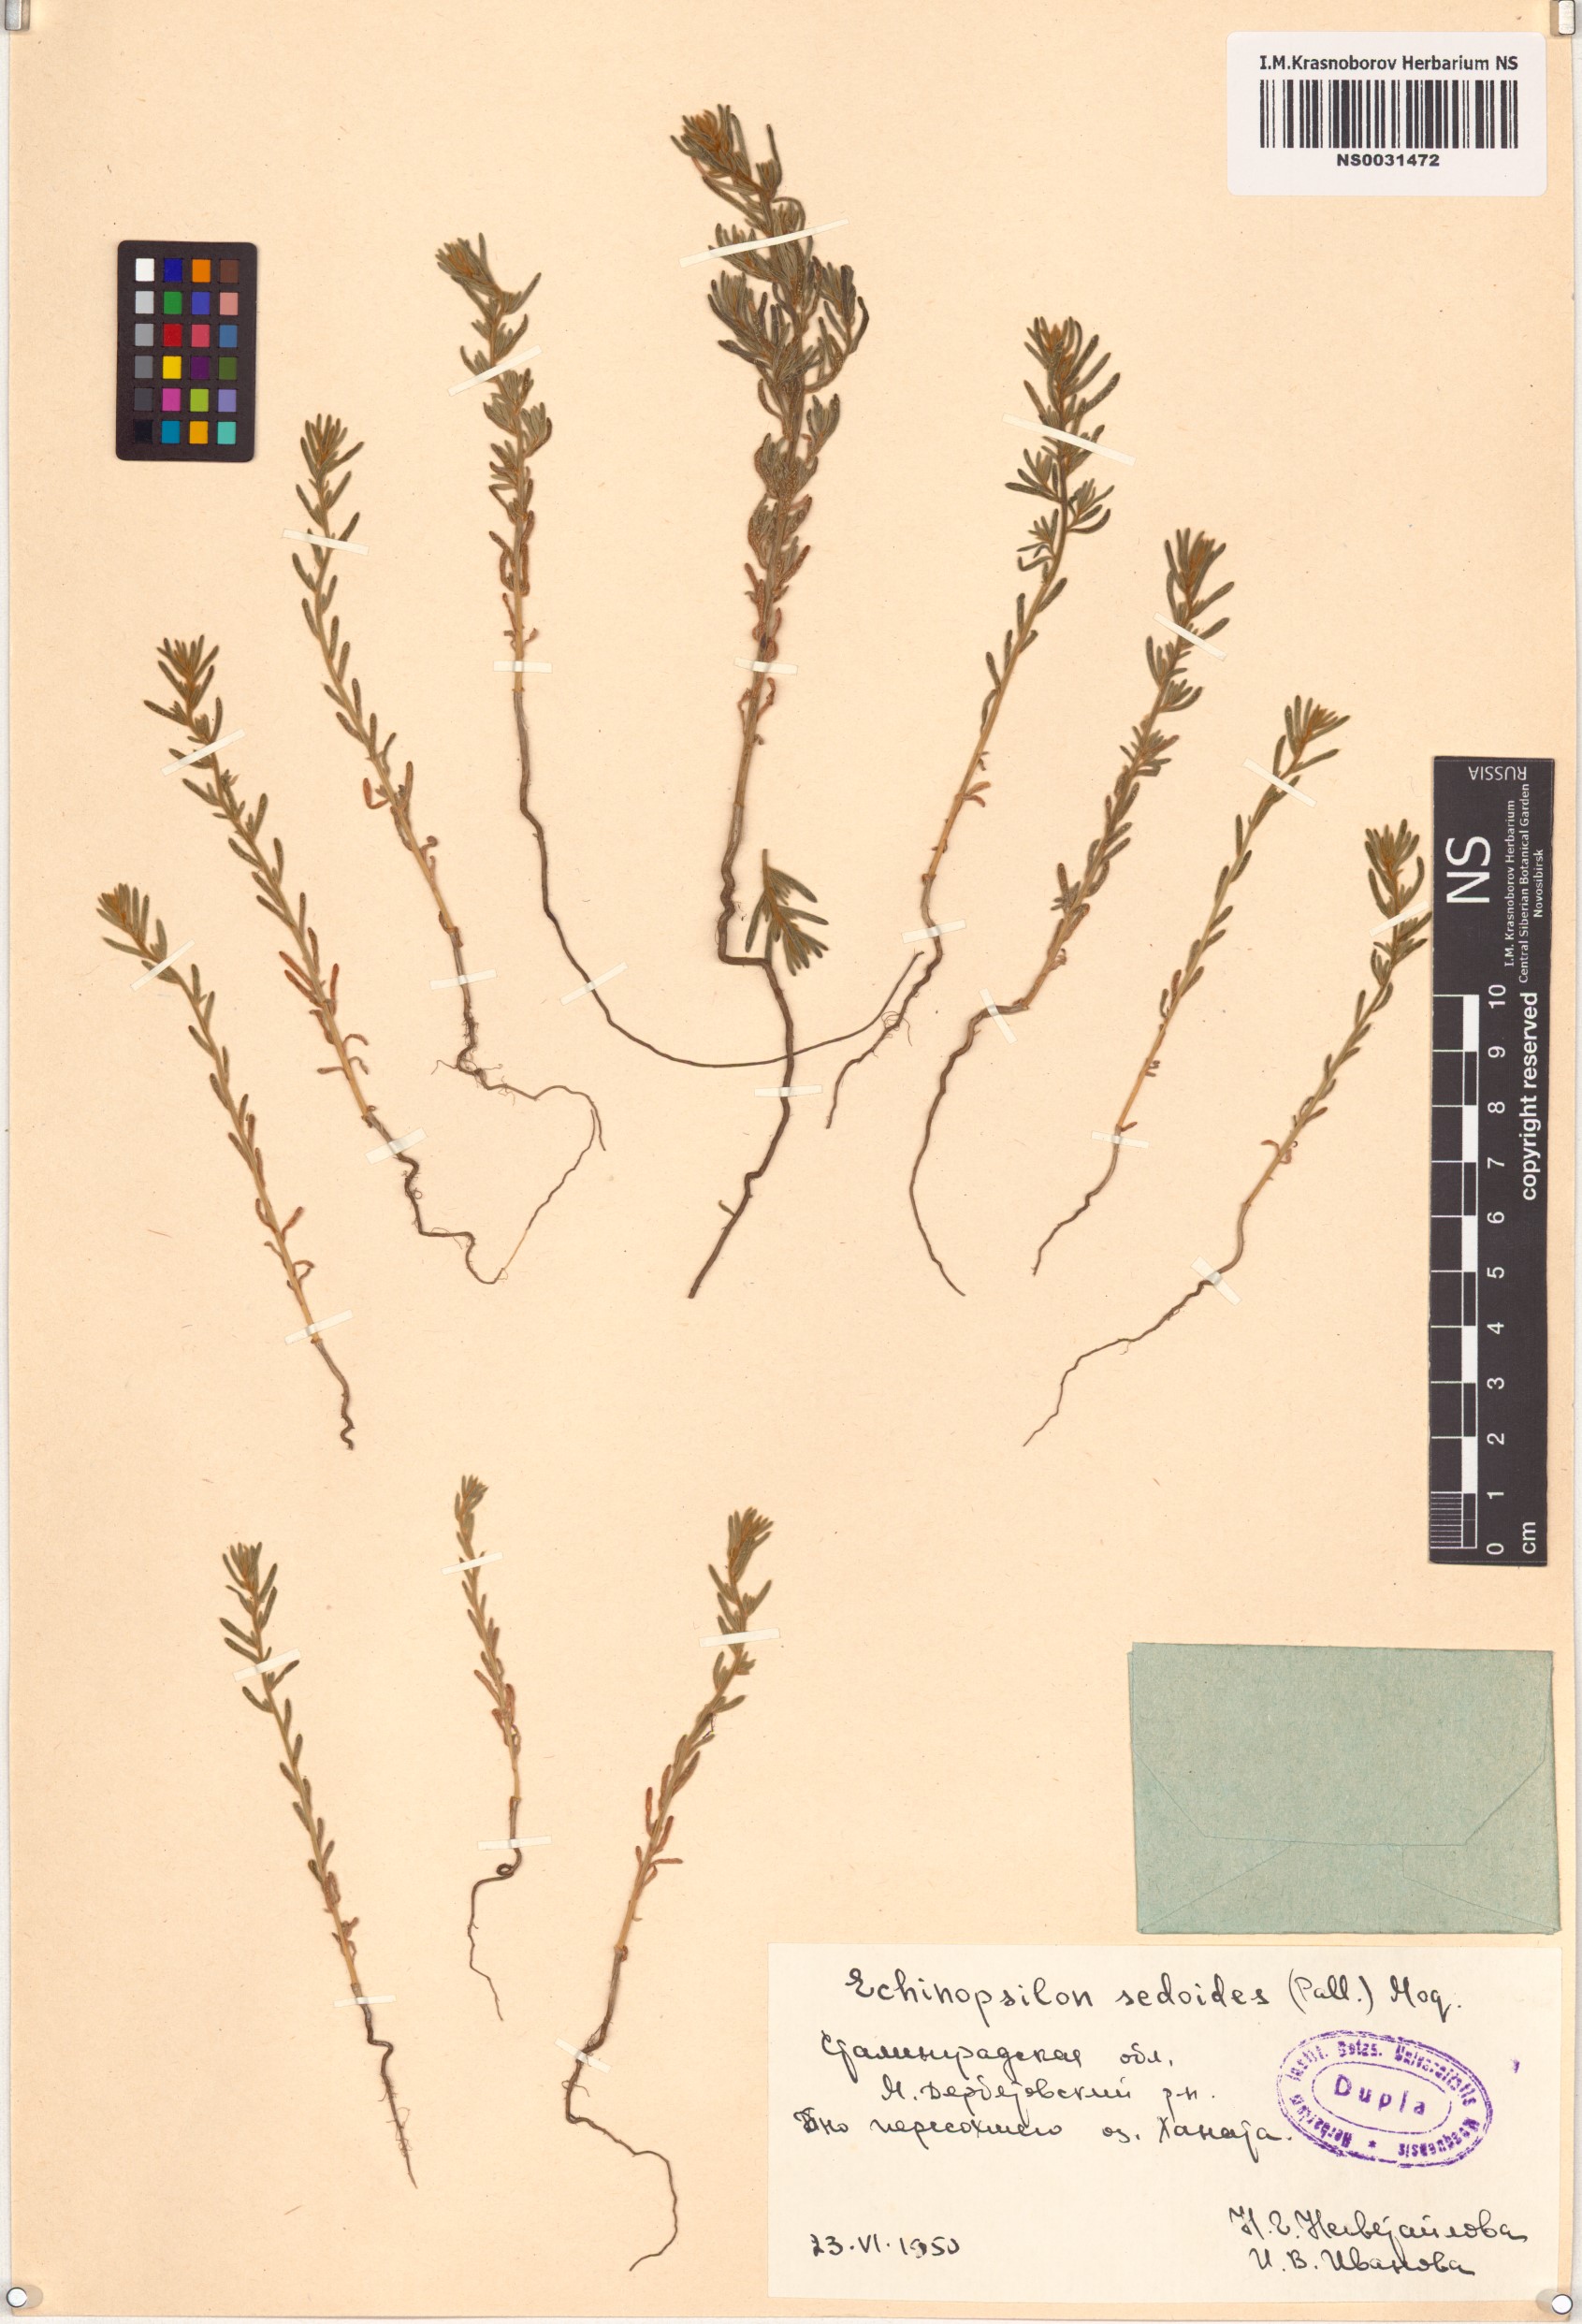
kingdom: Plantae
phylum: Tracheophyta
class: Magnoliopsida
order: Caryophyllales
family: Amaranthaceae
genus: Sedobassia
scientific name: Sedobassia sedoides
